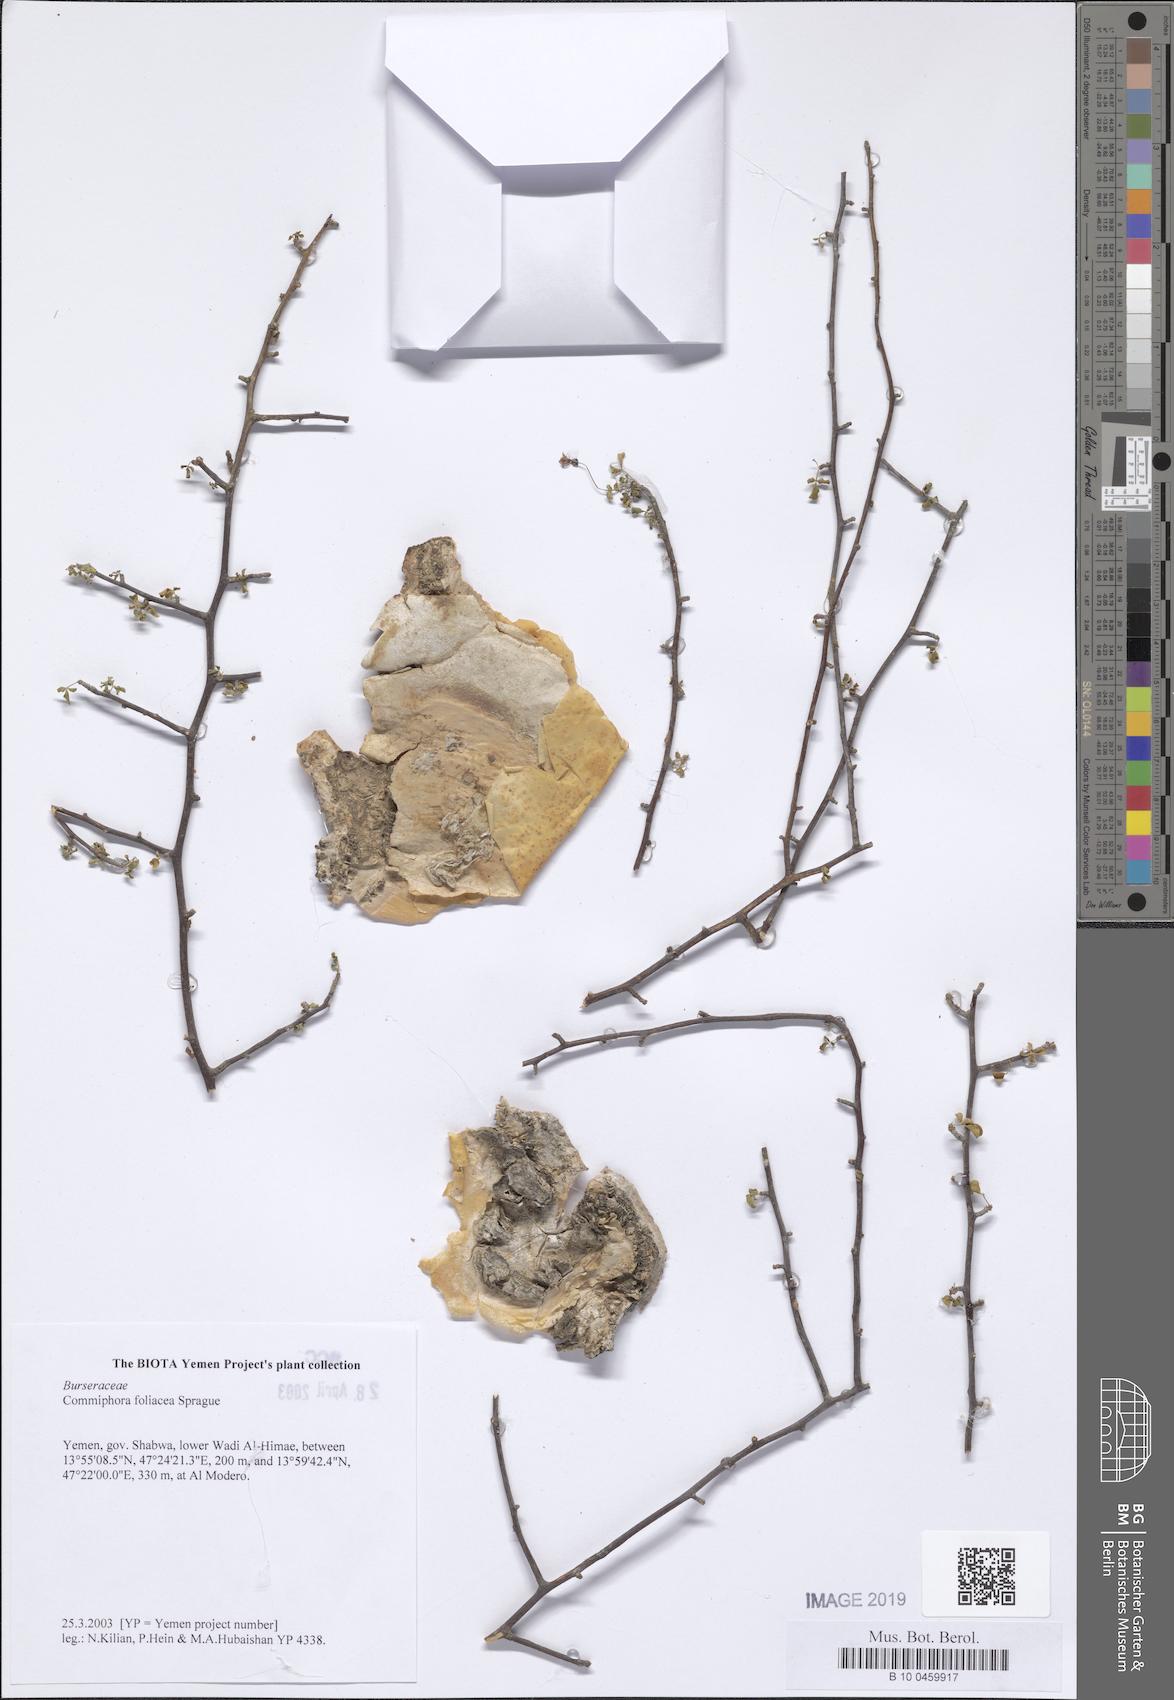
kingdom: Plantae
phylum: Tracheophyta
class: Magnoliopsida
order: Sapindales
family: Burseraceae
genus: Commiphora
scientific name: Commiphora foliacea
